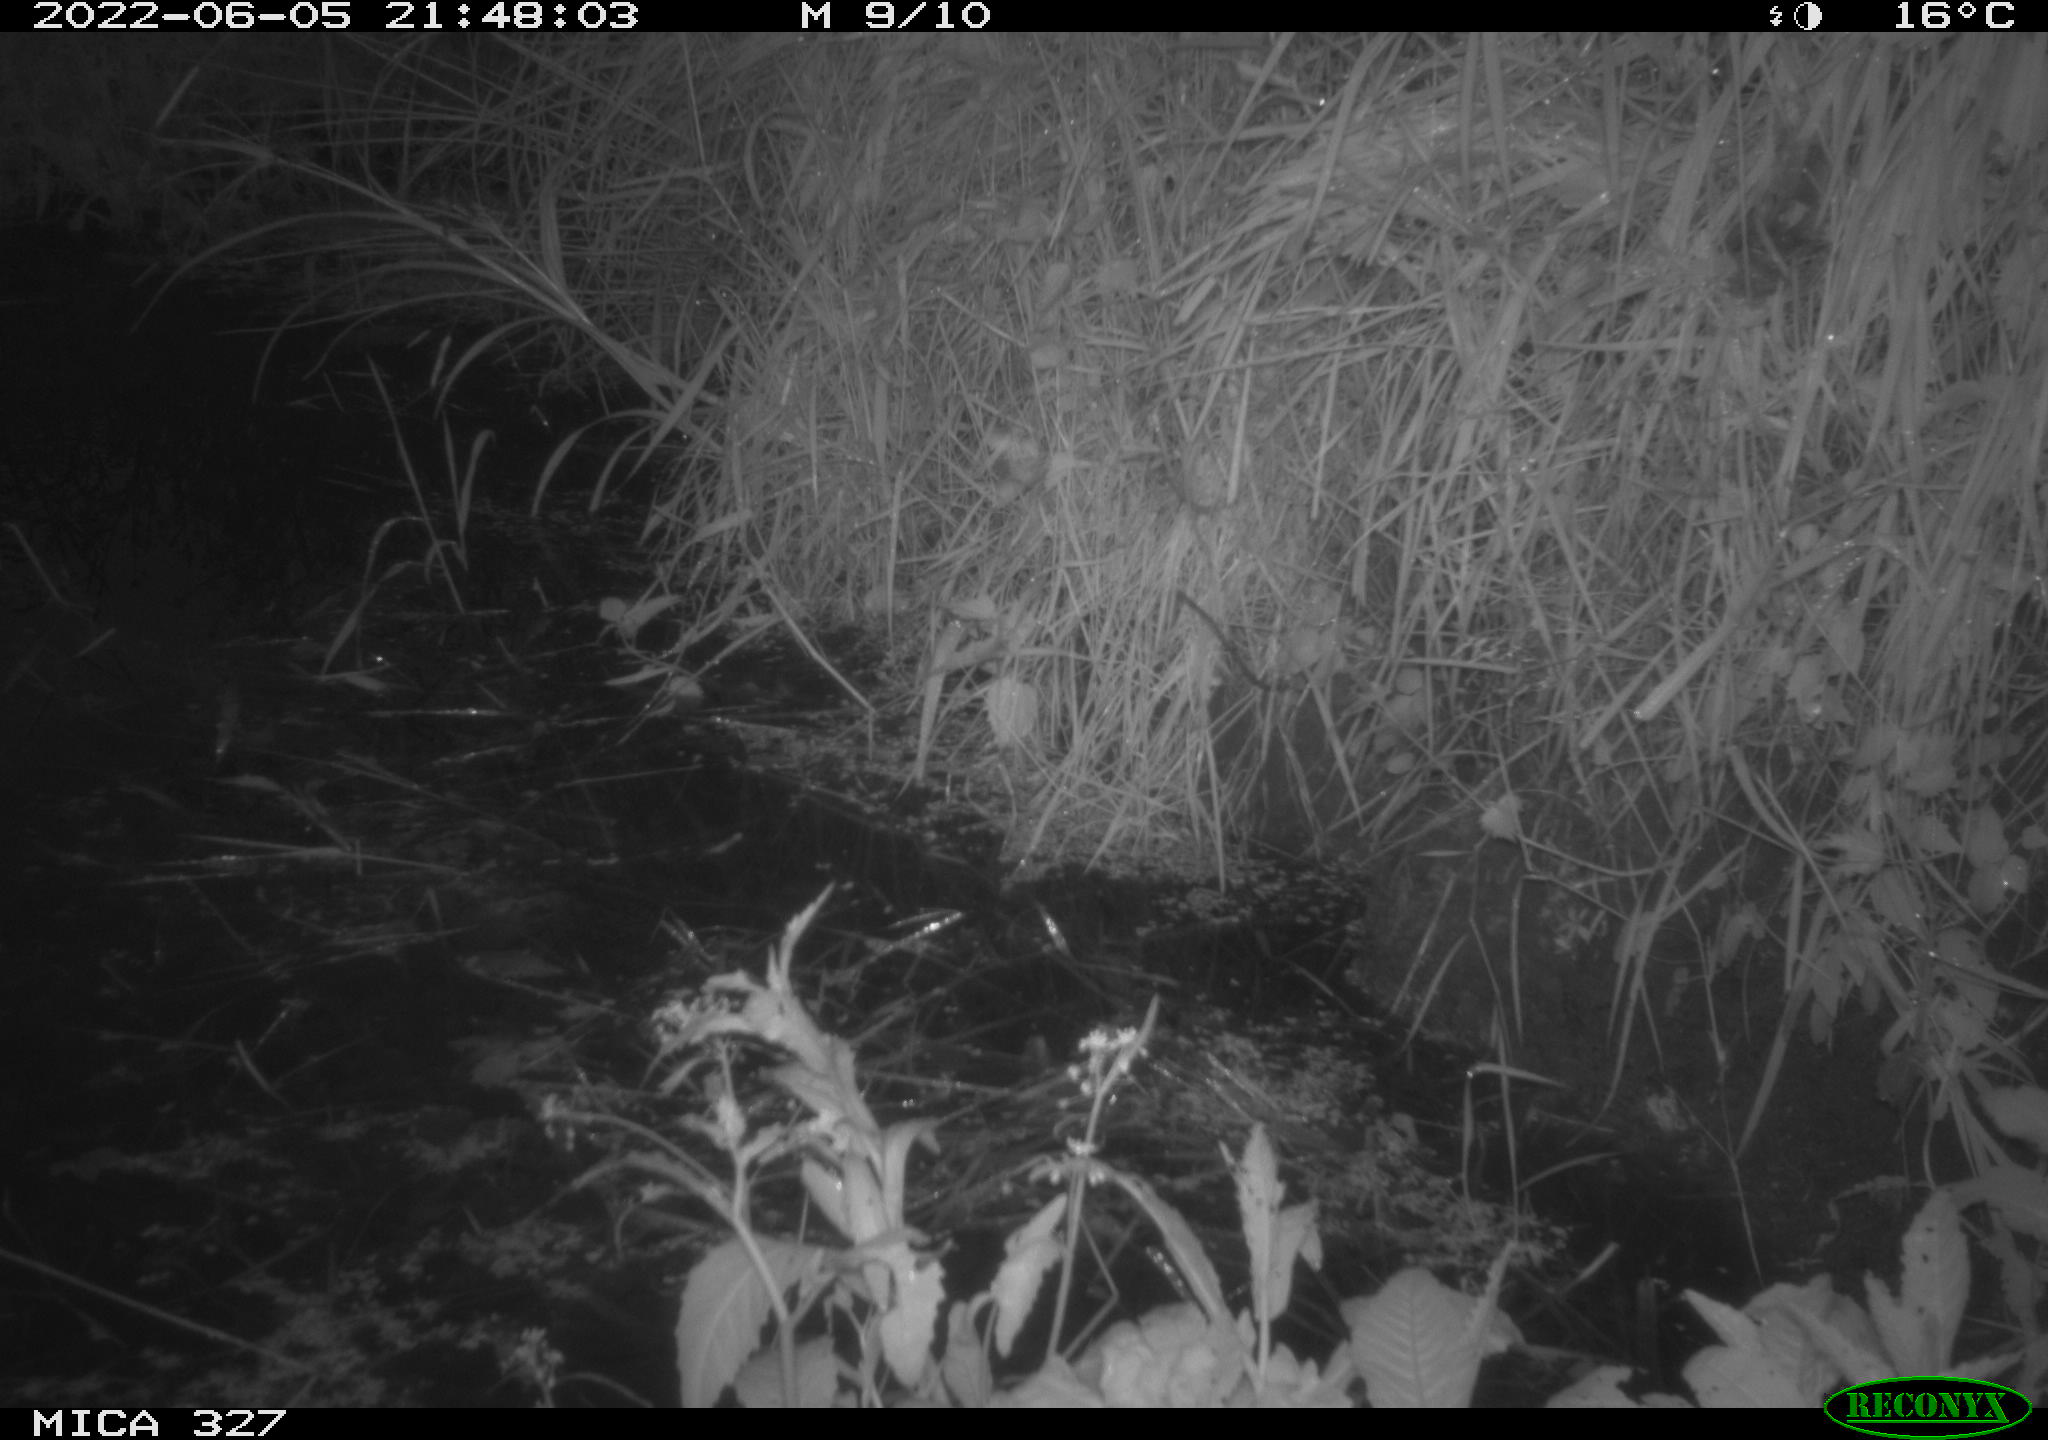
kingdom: Animalia
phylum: Chordata
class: Mammalia
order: Rodentia
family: Muridae
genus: Rattus
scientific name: Rattus norvegicus
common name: Brown rat
